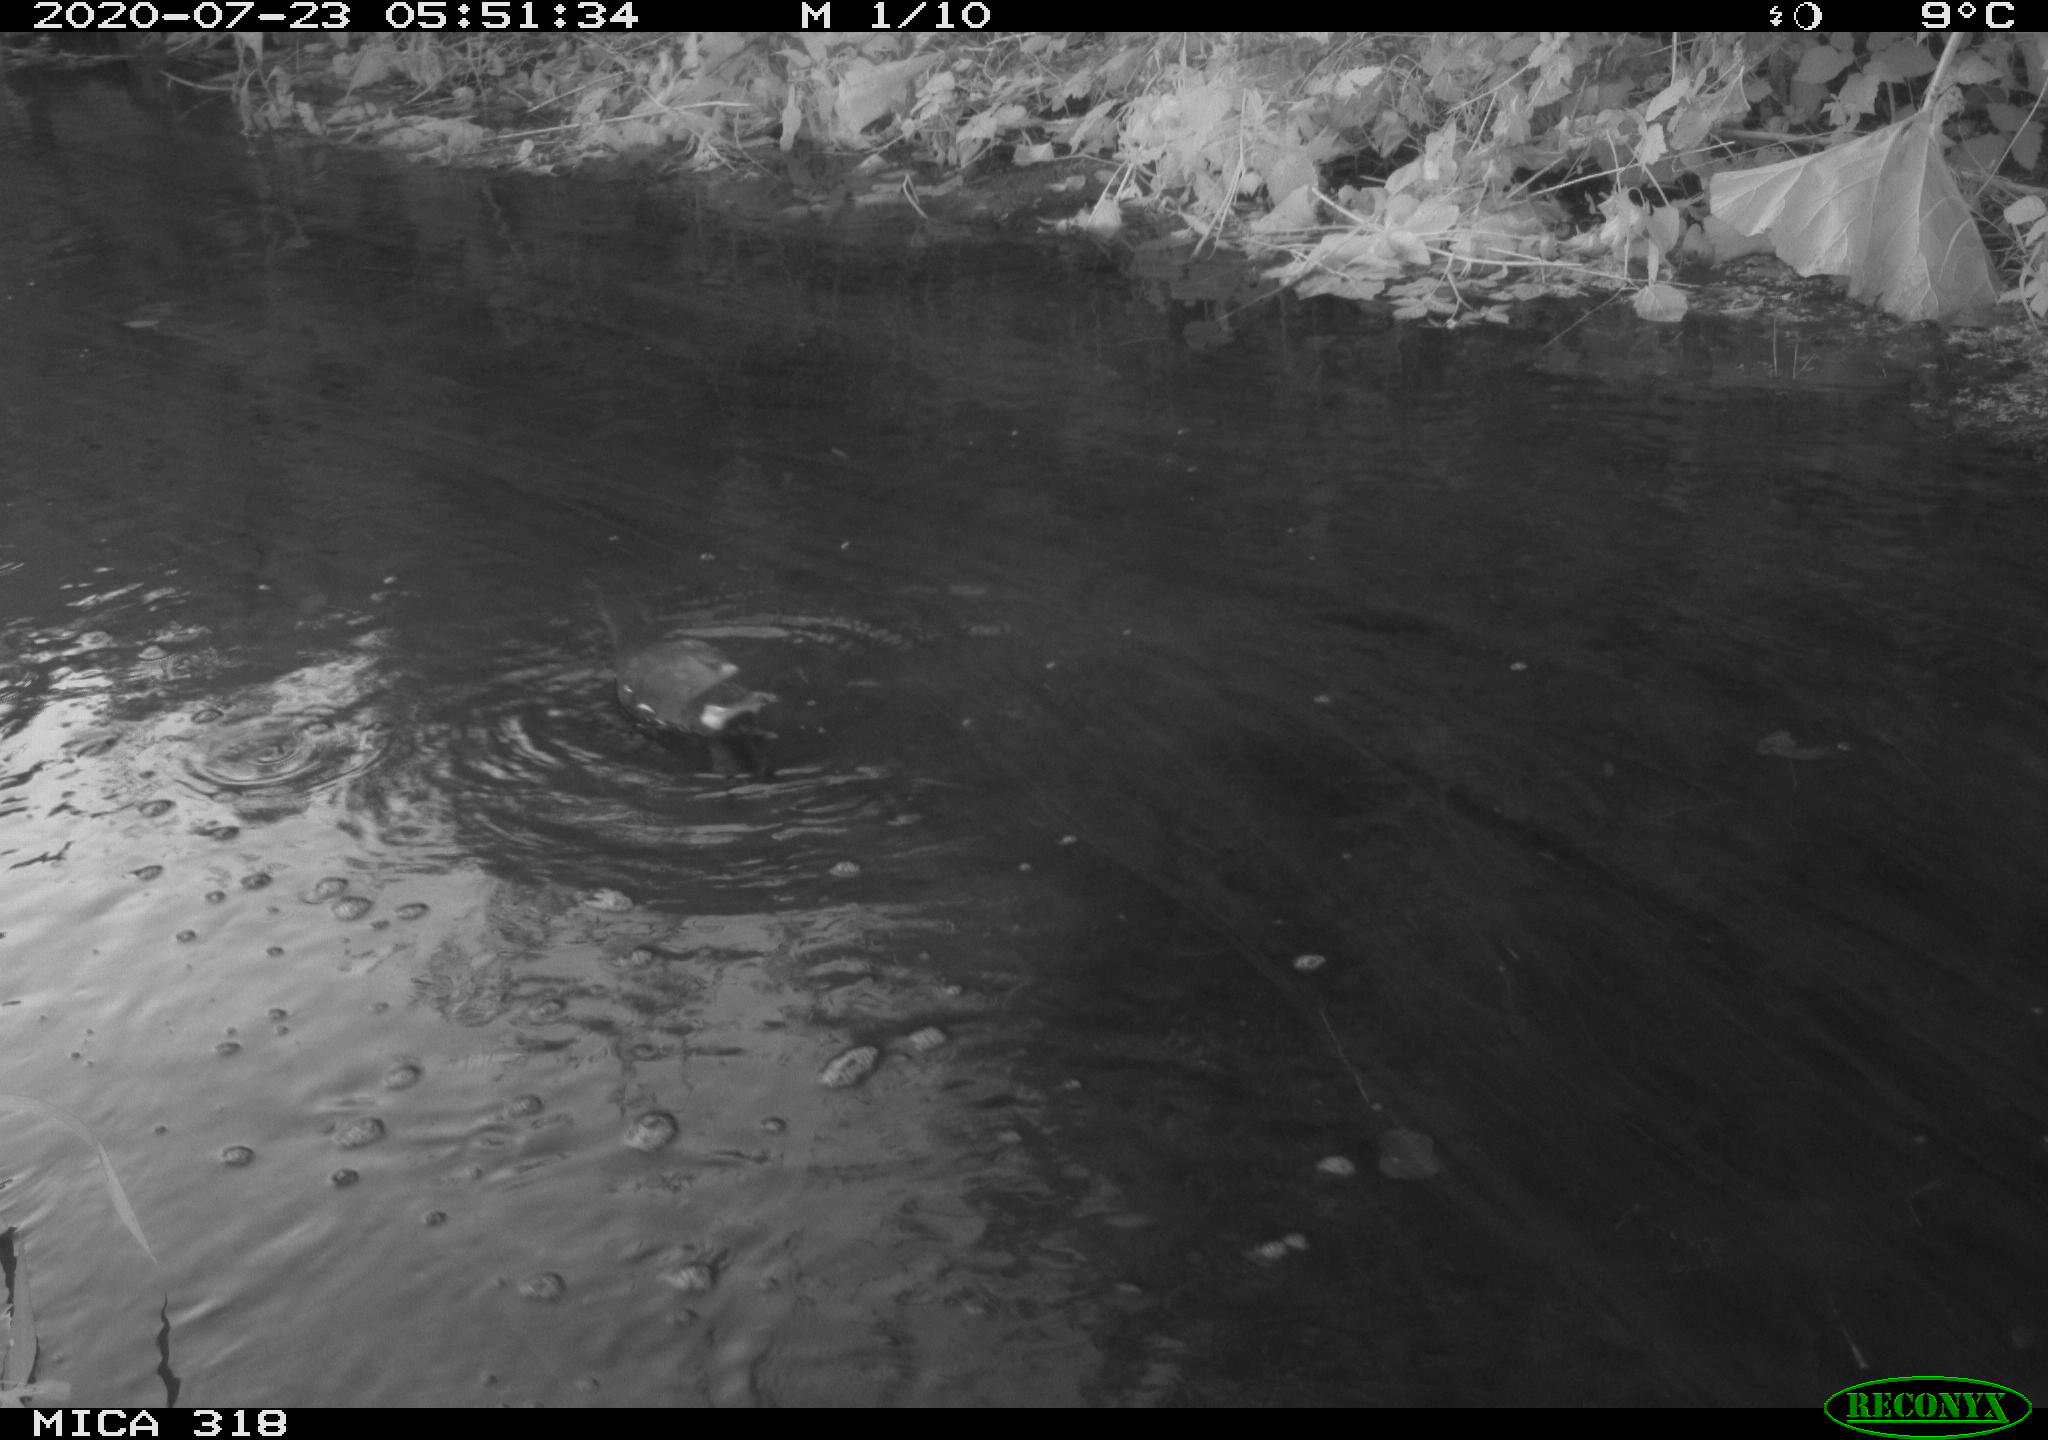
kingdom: Animalia
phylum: Chordata
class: Aves
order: Gruiformes
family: Rallidae
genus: Gallinula
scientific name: Gallinula chloropus
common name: Common moorhen
